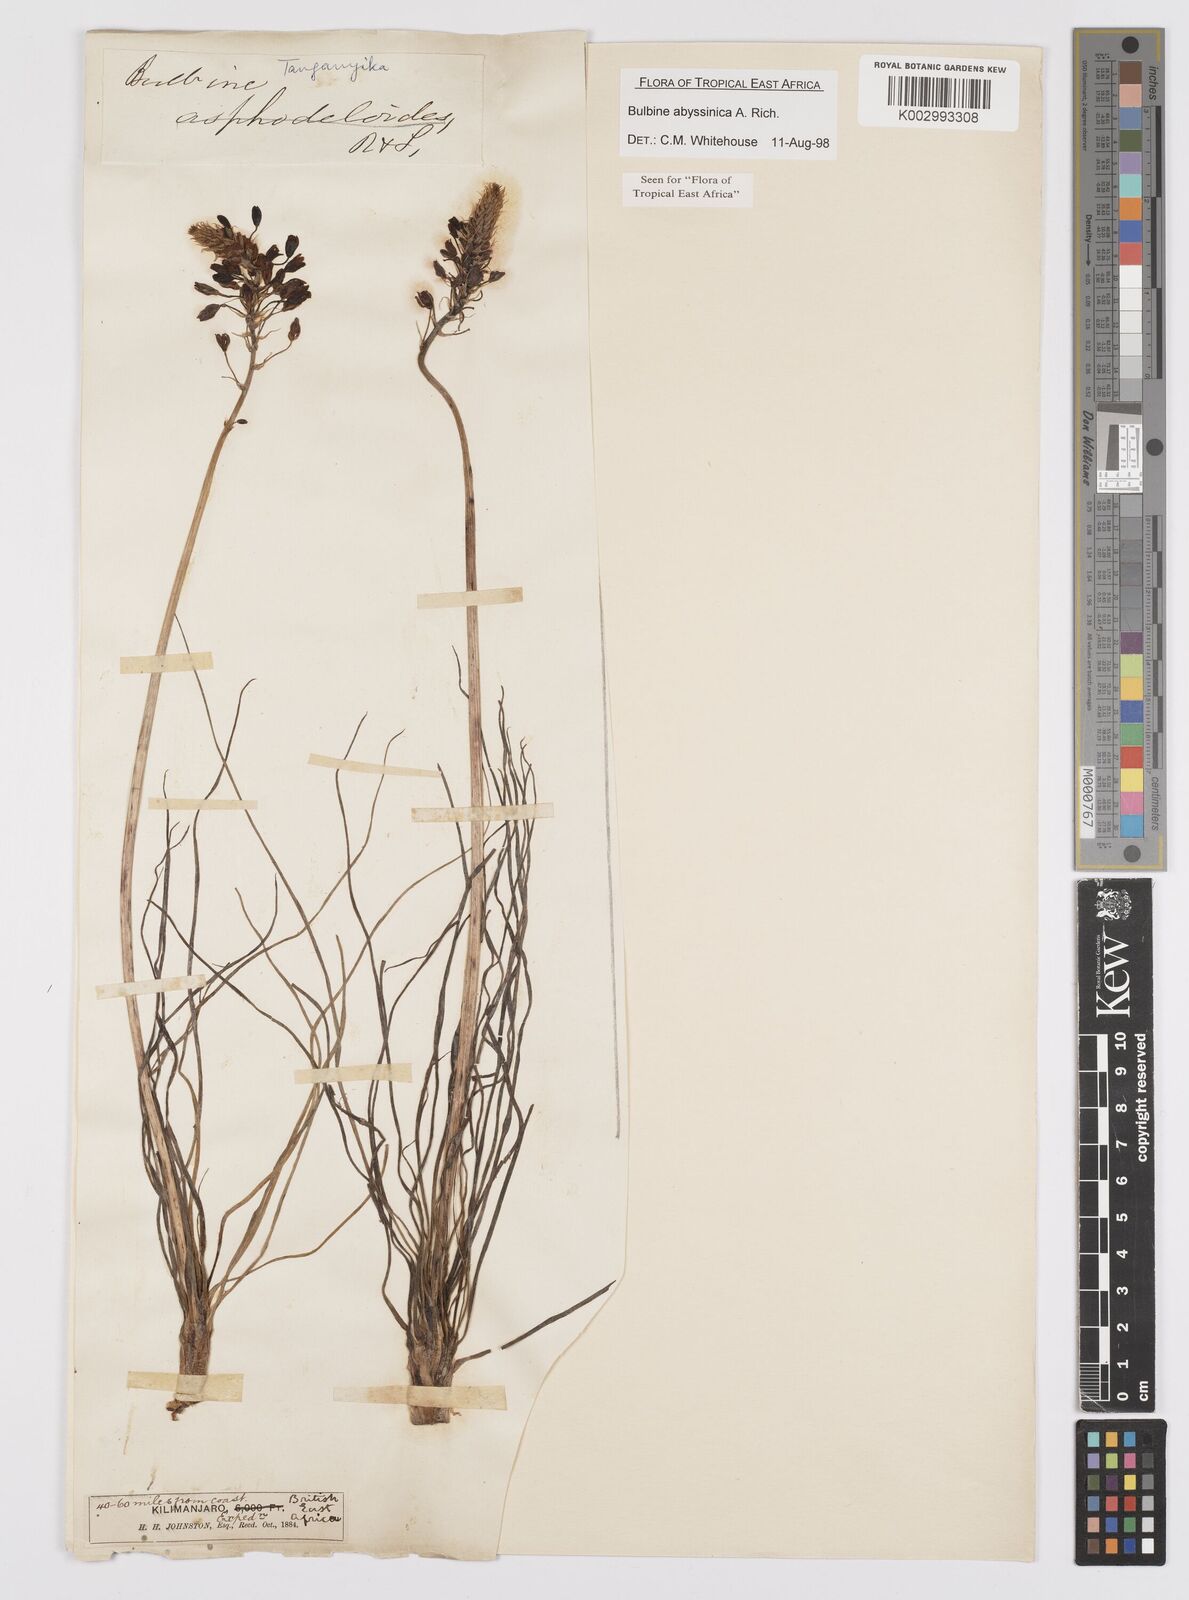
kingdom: Plantae
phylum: Tracheophyta
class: Liliopsida
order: Asparagales
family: Asphodelaceae
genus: Bulbine
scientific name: Bulbine abyssinica
